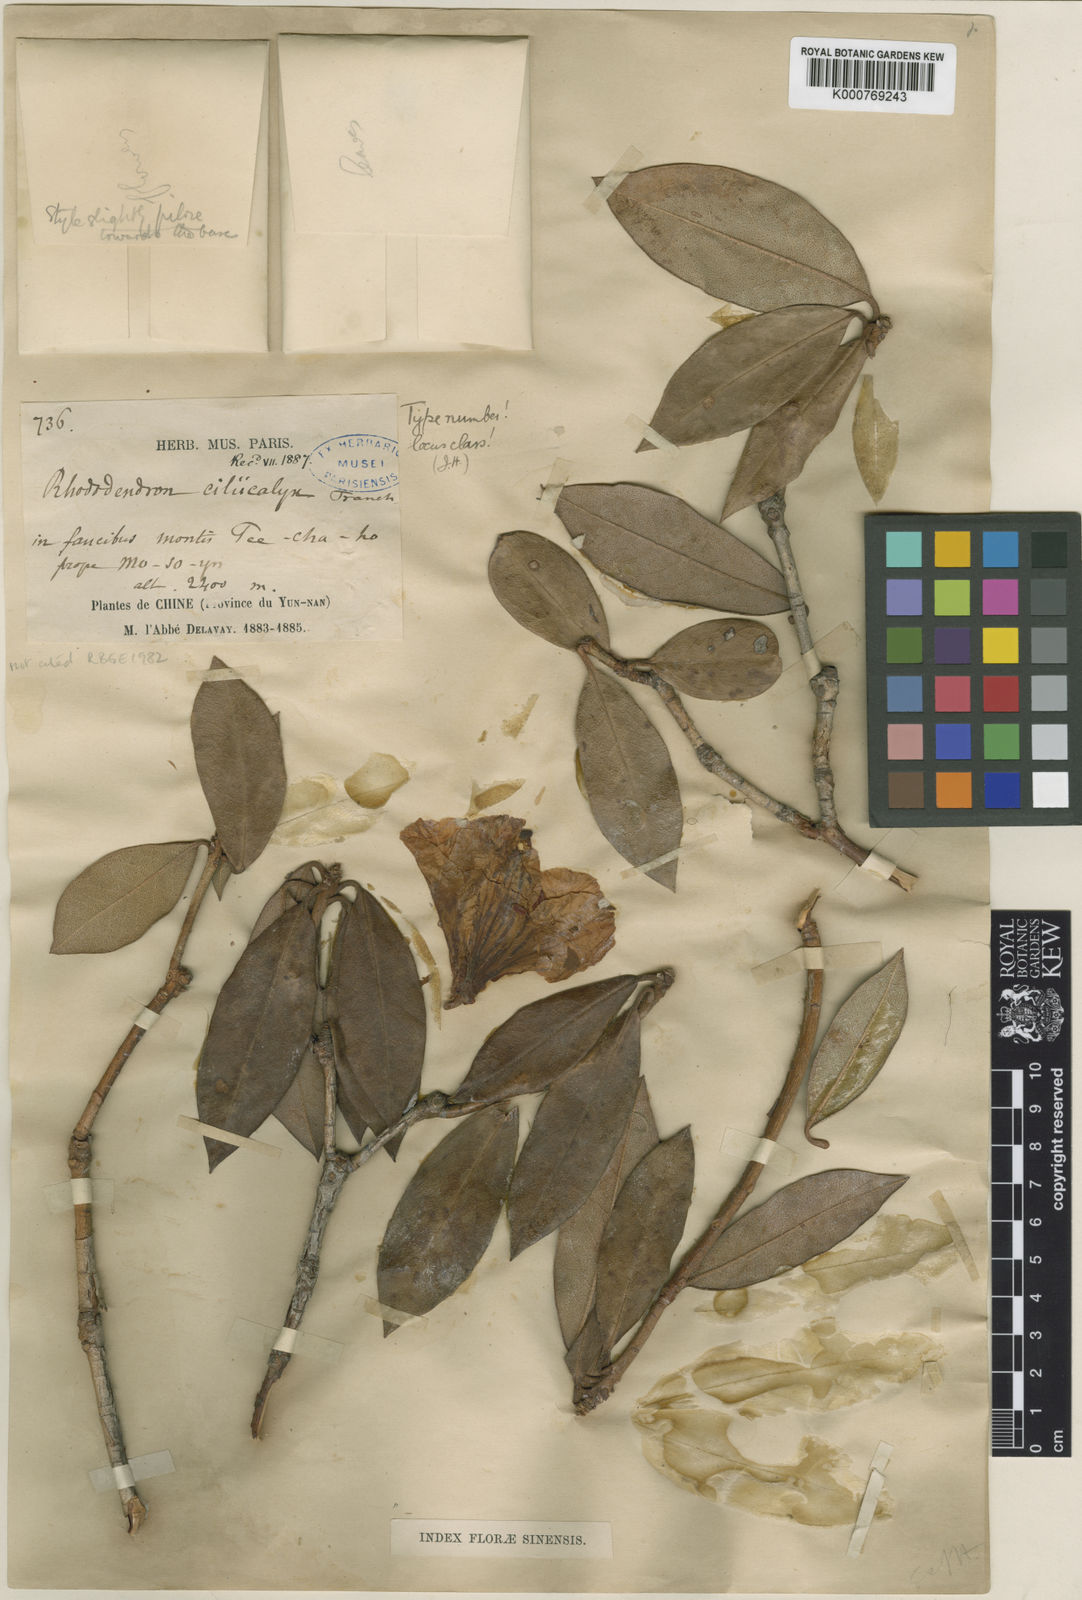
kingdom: Plantae
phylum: Tracheophyta
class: Magnoliopsida
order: Ericales
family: Ericaceae
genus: Rhododendron
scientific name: Rhododendron ciliicalyx
